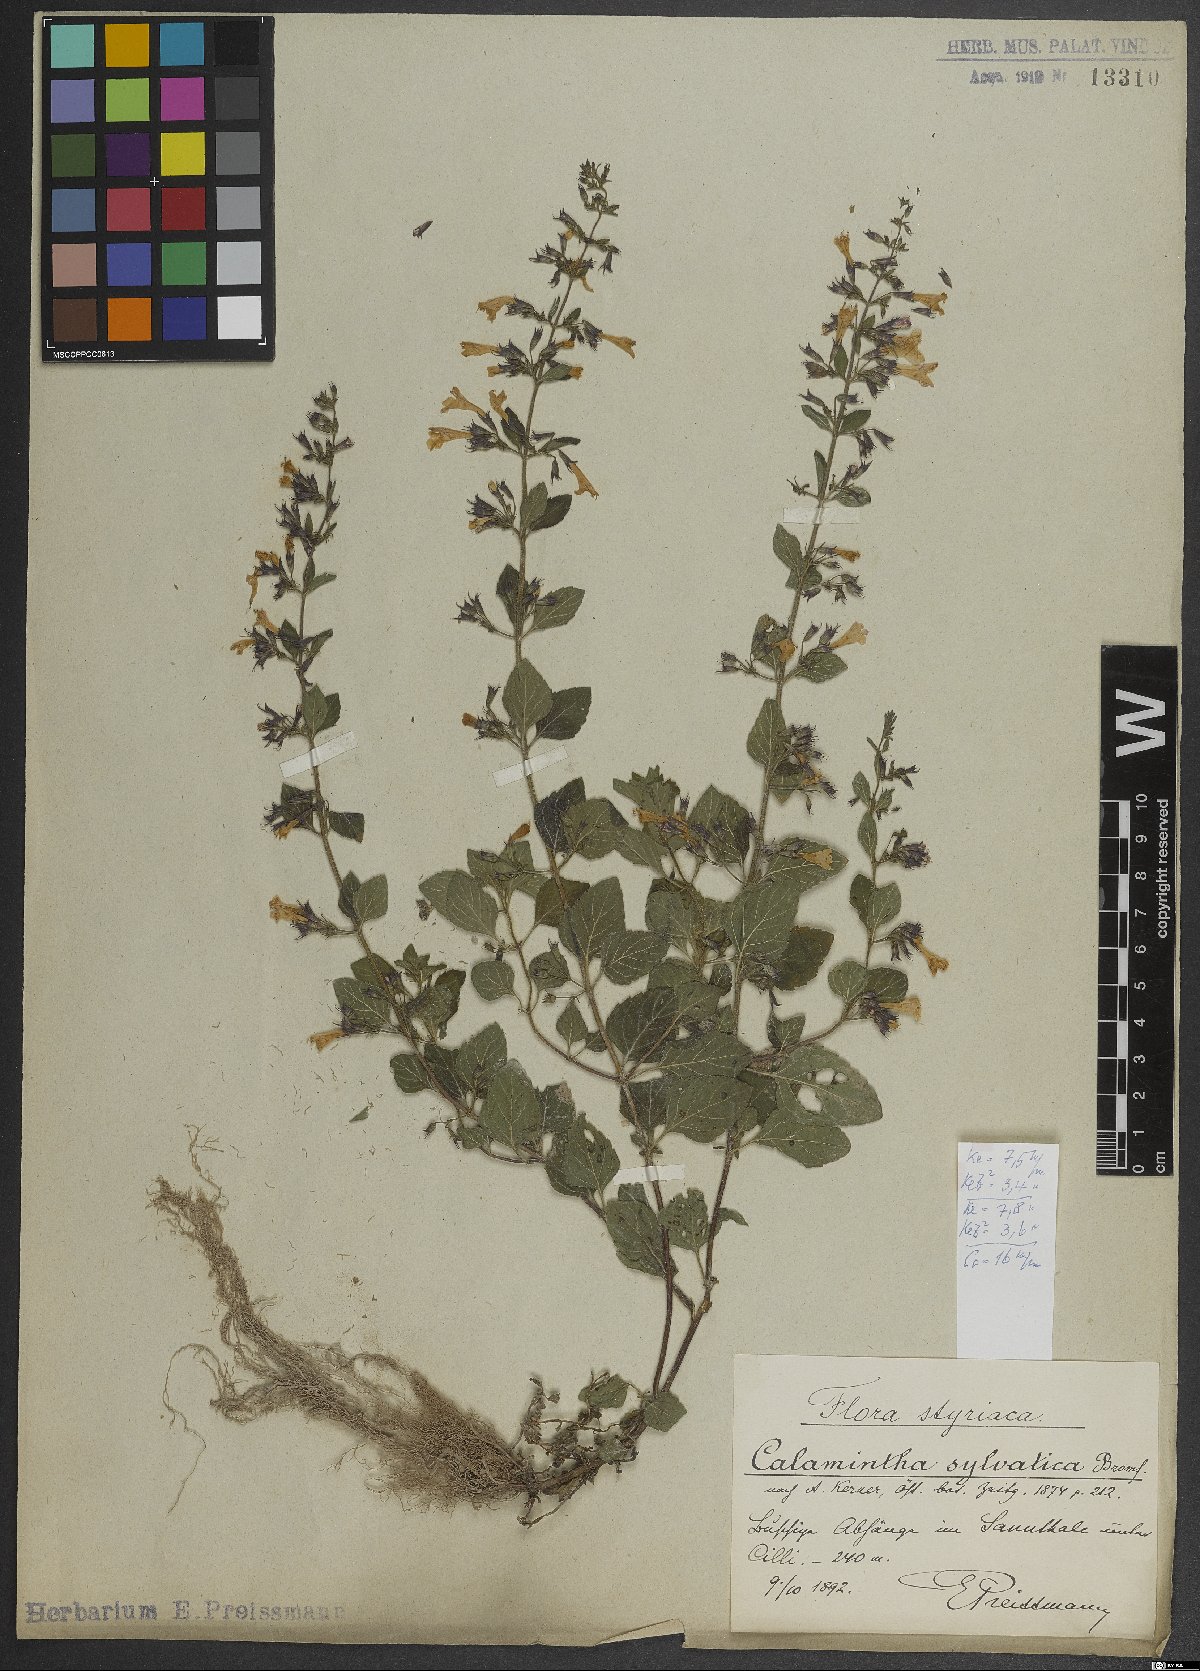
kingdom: Plantae
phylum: Tracheophyta
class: Magnoliopsida
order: Lamiales
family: Lamiaceae
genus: Clinopodium
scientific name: Clinopodium menthifolium
